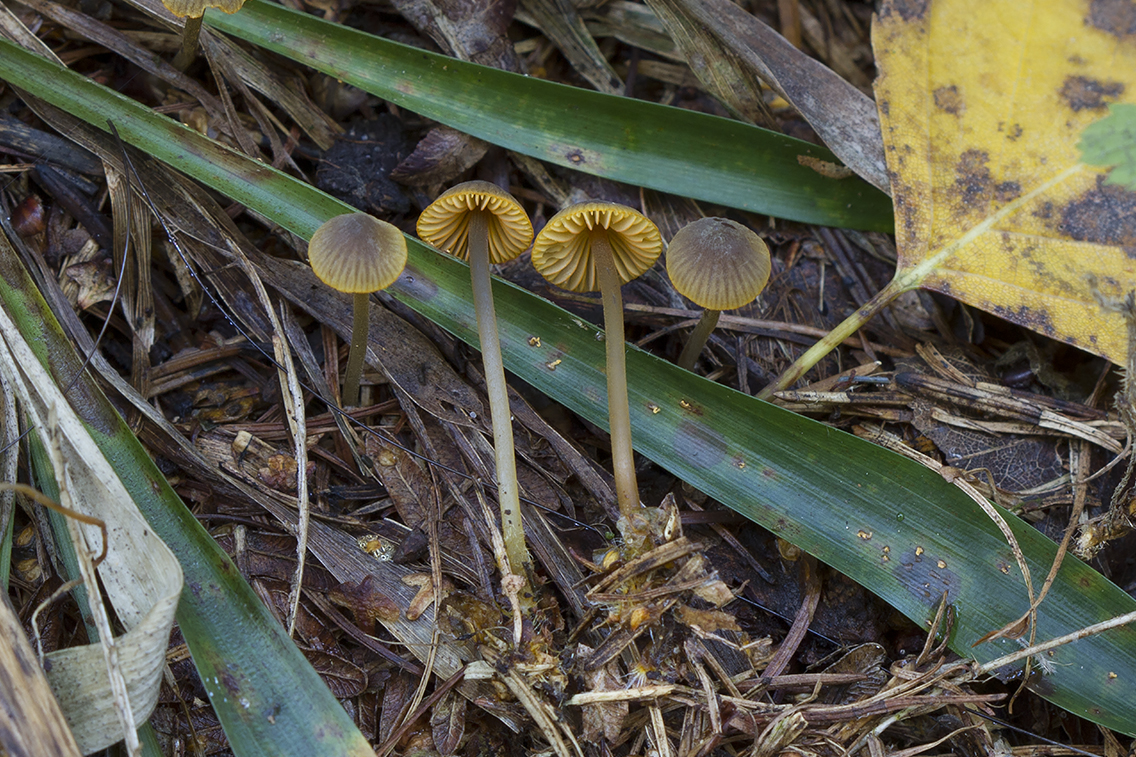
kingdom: Fungi
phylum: Basidiomycota
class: Agaricomycetes
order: Agaricales
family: Mycenaceae
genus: Mycena
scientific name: Mycena aurantiomarginata
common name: orangeægget huesvamp
